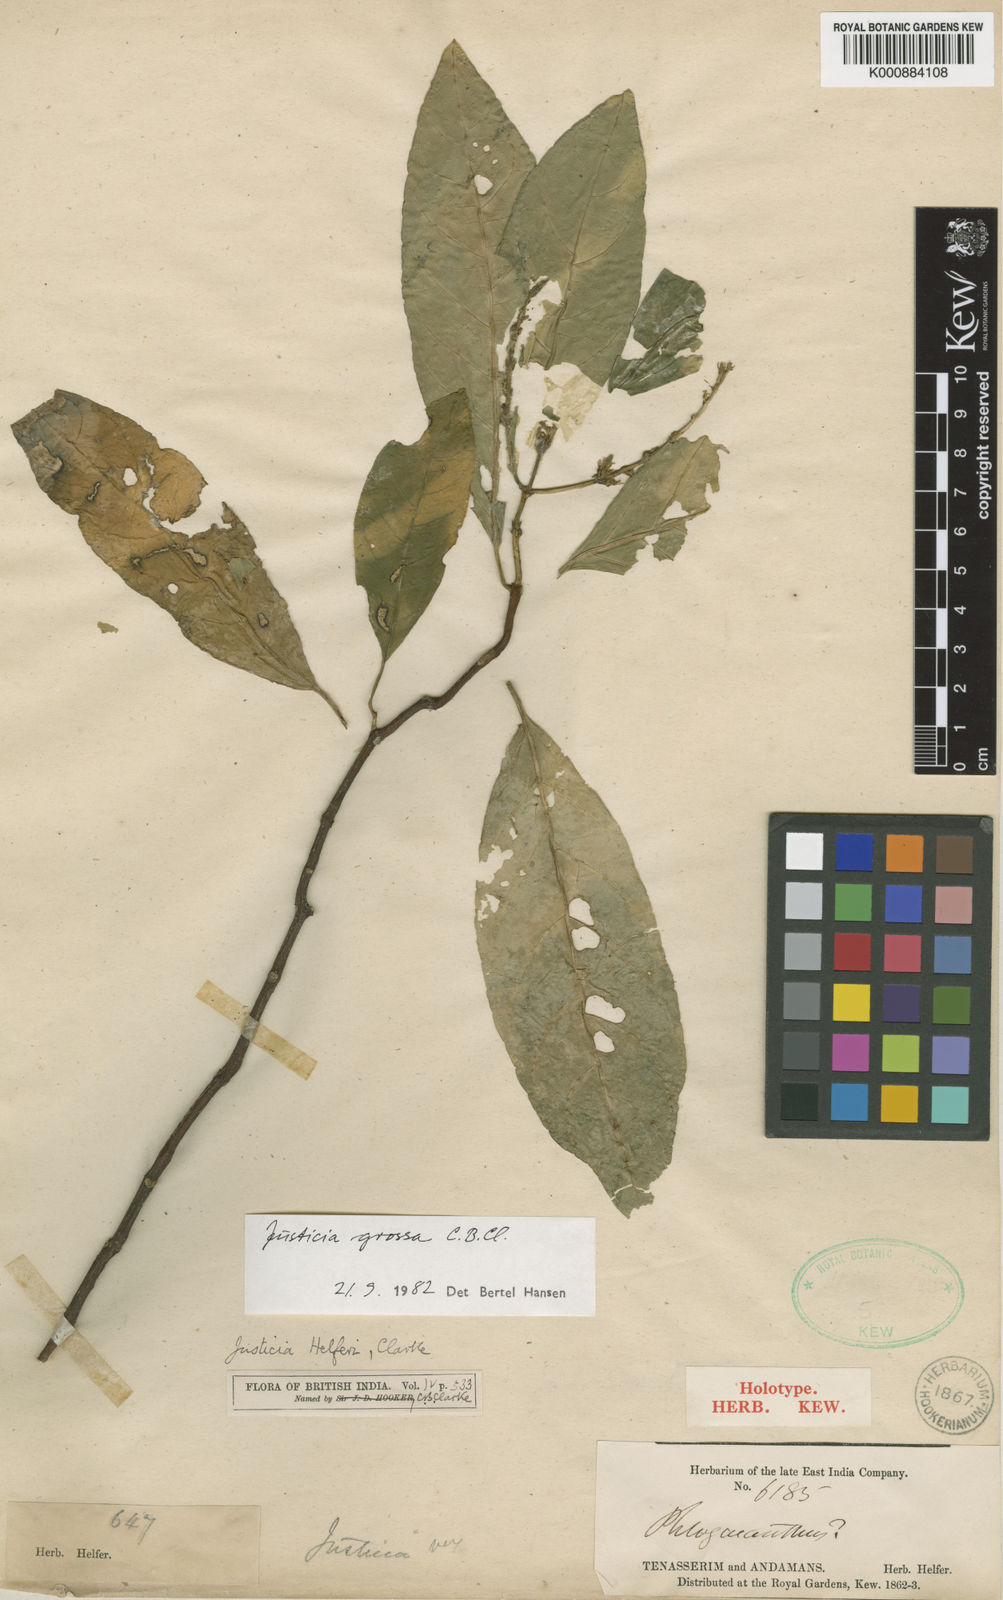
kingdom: Plantae
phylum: Tracheophyta
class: Magnoliopsida
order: Lamiales
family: Acanthaceae
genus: Ecbolium
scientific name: Ecbolium grossum
